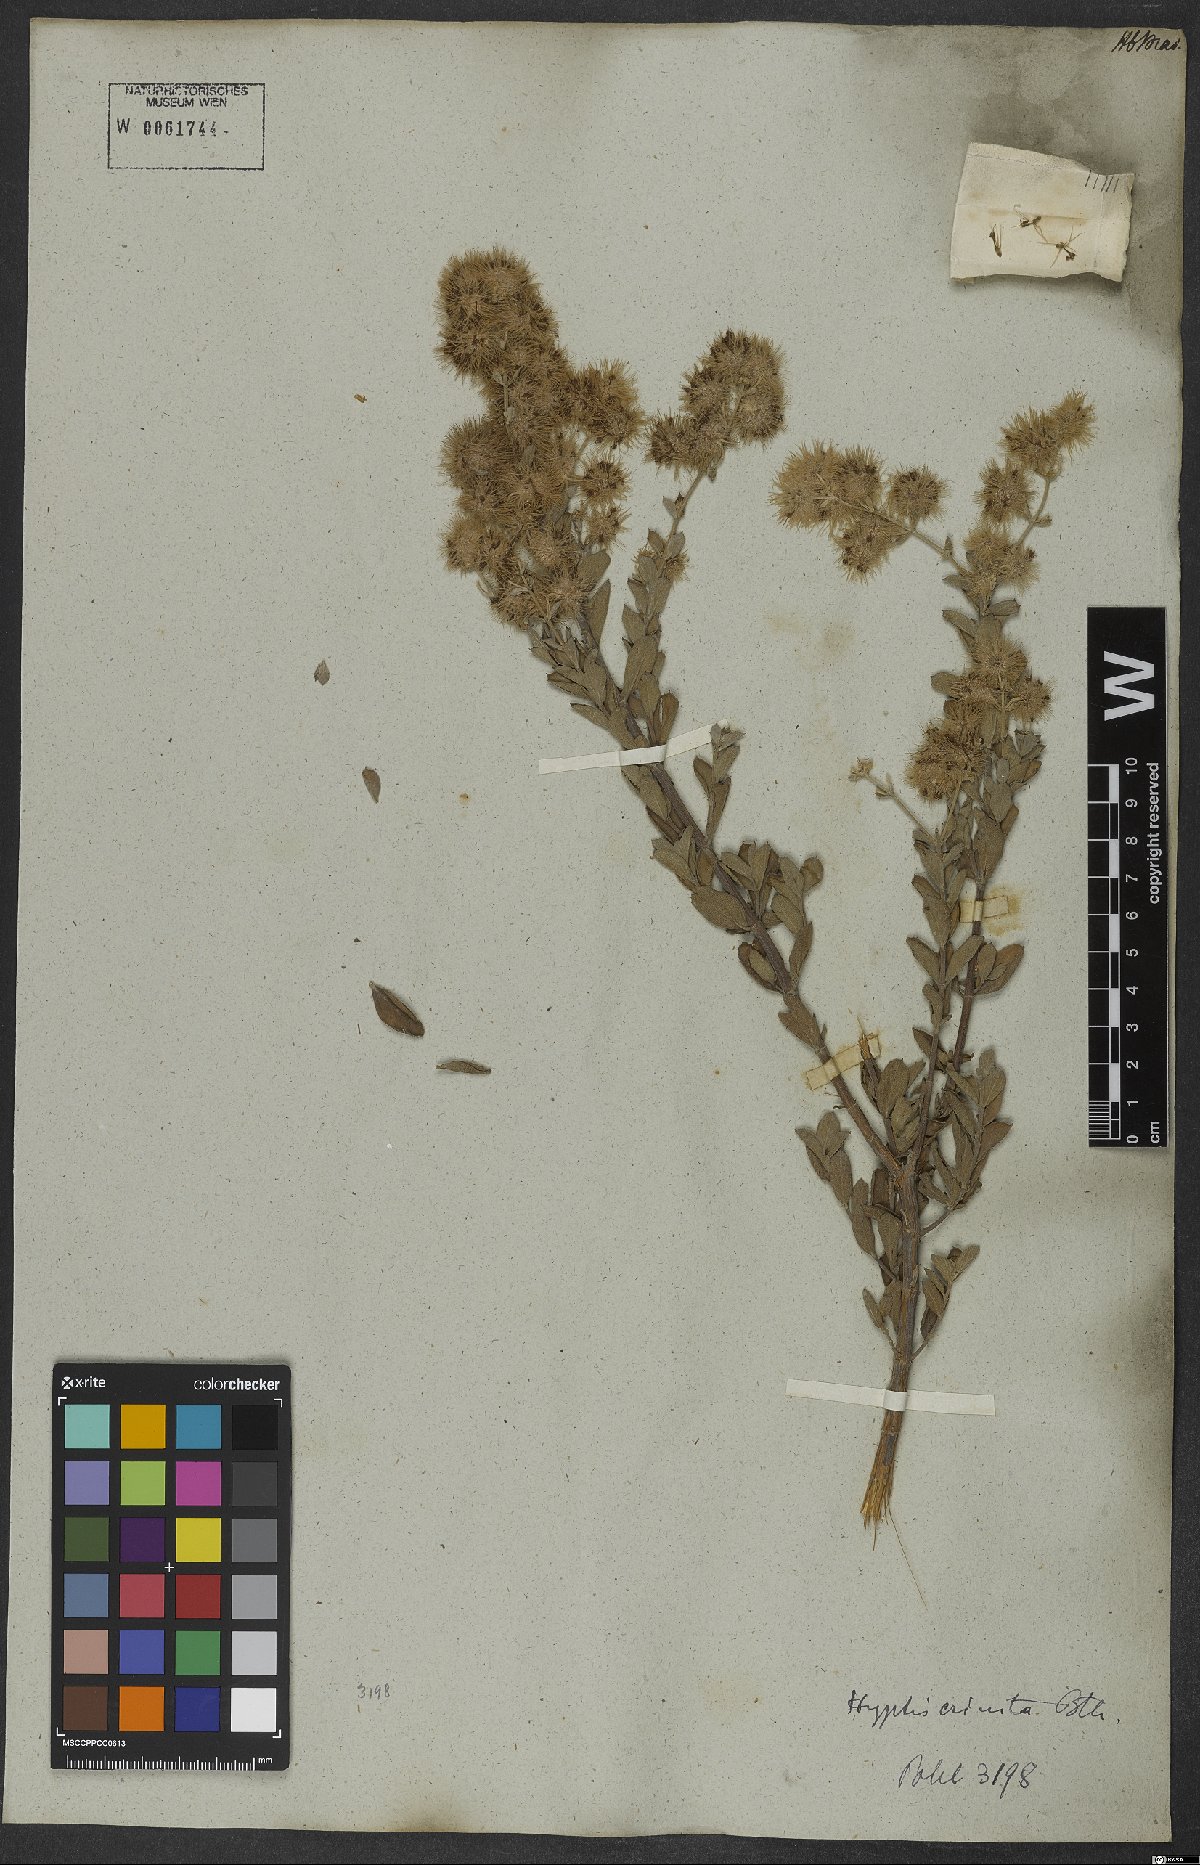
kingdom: Plantae
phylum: Tracheophyta
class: Magnoliopsida
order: Lamiales
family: Lamiaceae
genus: Medusantha
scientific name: Medusantha crinita
